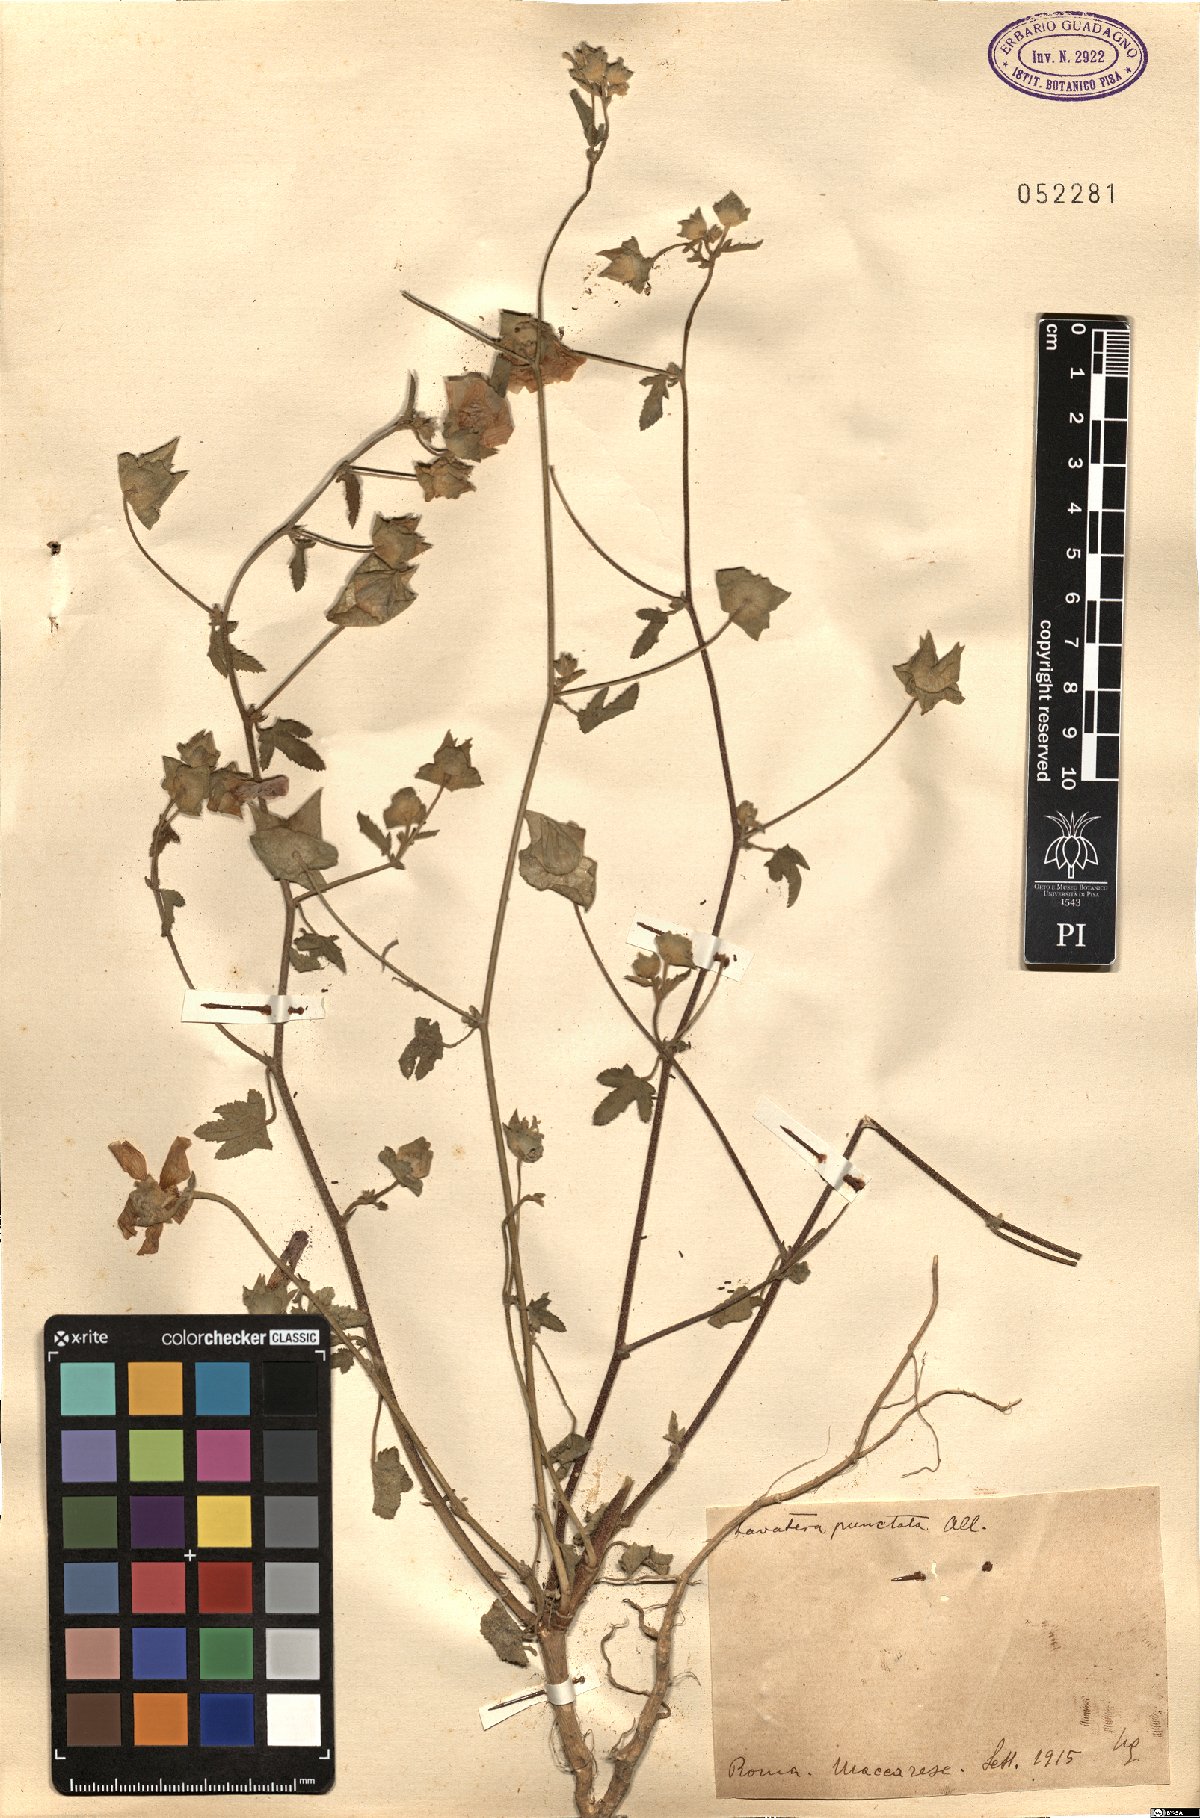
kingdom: Plantae
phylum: Tracheophyta
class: Magnoliopsida
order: Malvales
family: Malvaceae
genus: Malva
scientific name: Malva punctata
